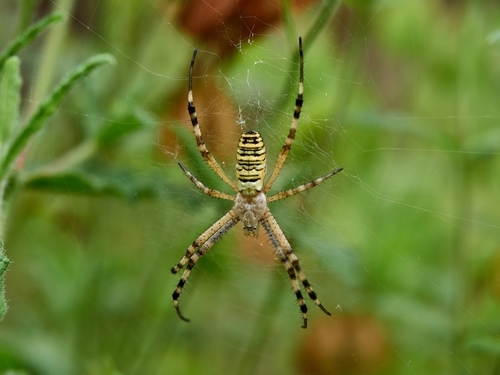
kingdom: Animalia
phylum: Arthropoda
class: Arachnida
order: Araneae
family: Araneidae
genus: Argiope
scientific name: Argiope bruennichi
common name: Wasp spider
